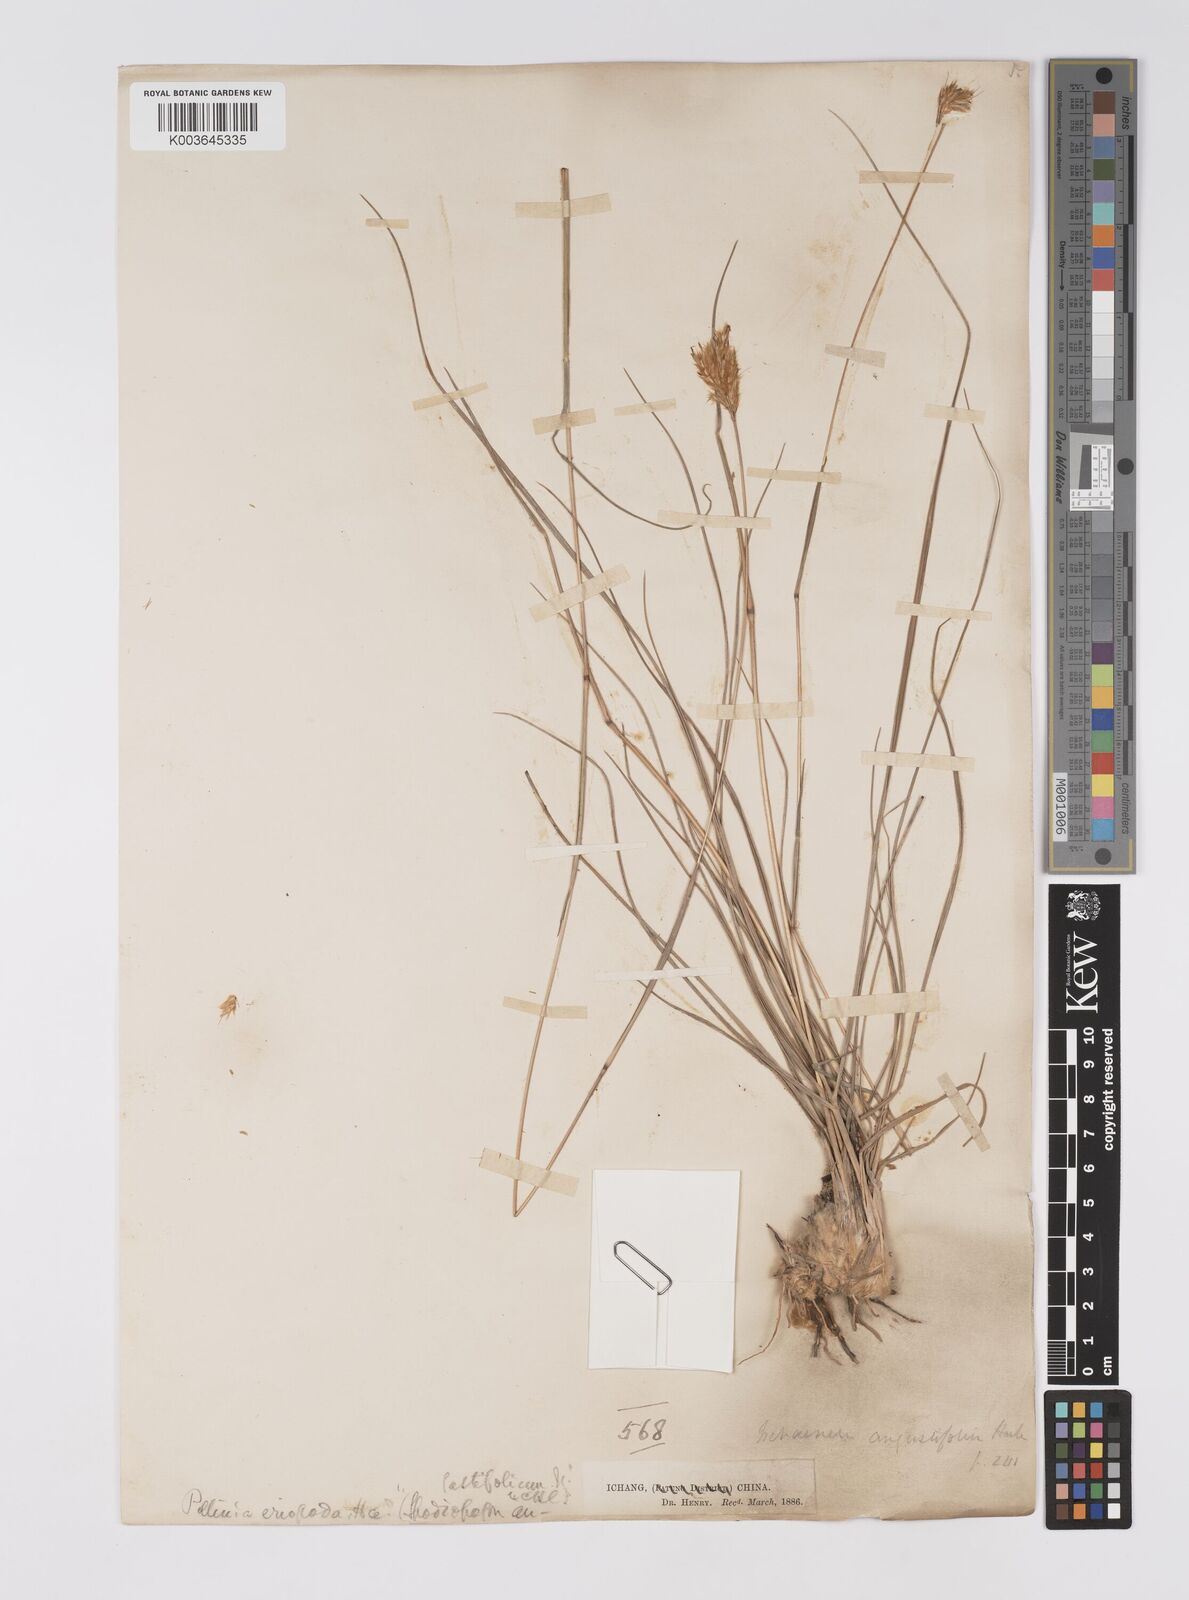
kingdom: Plantae
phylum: Tracheophyta
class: Liliopsida
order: Poales
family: Poaceae
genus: Eulaliopsis
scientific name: Eulaliopsis binata
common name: Baib grass
